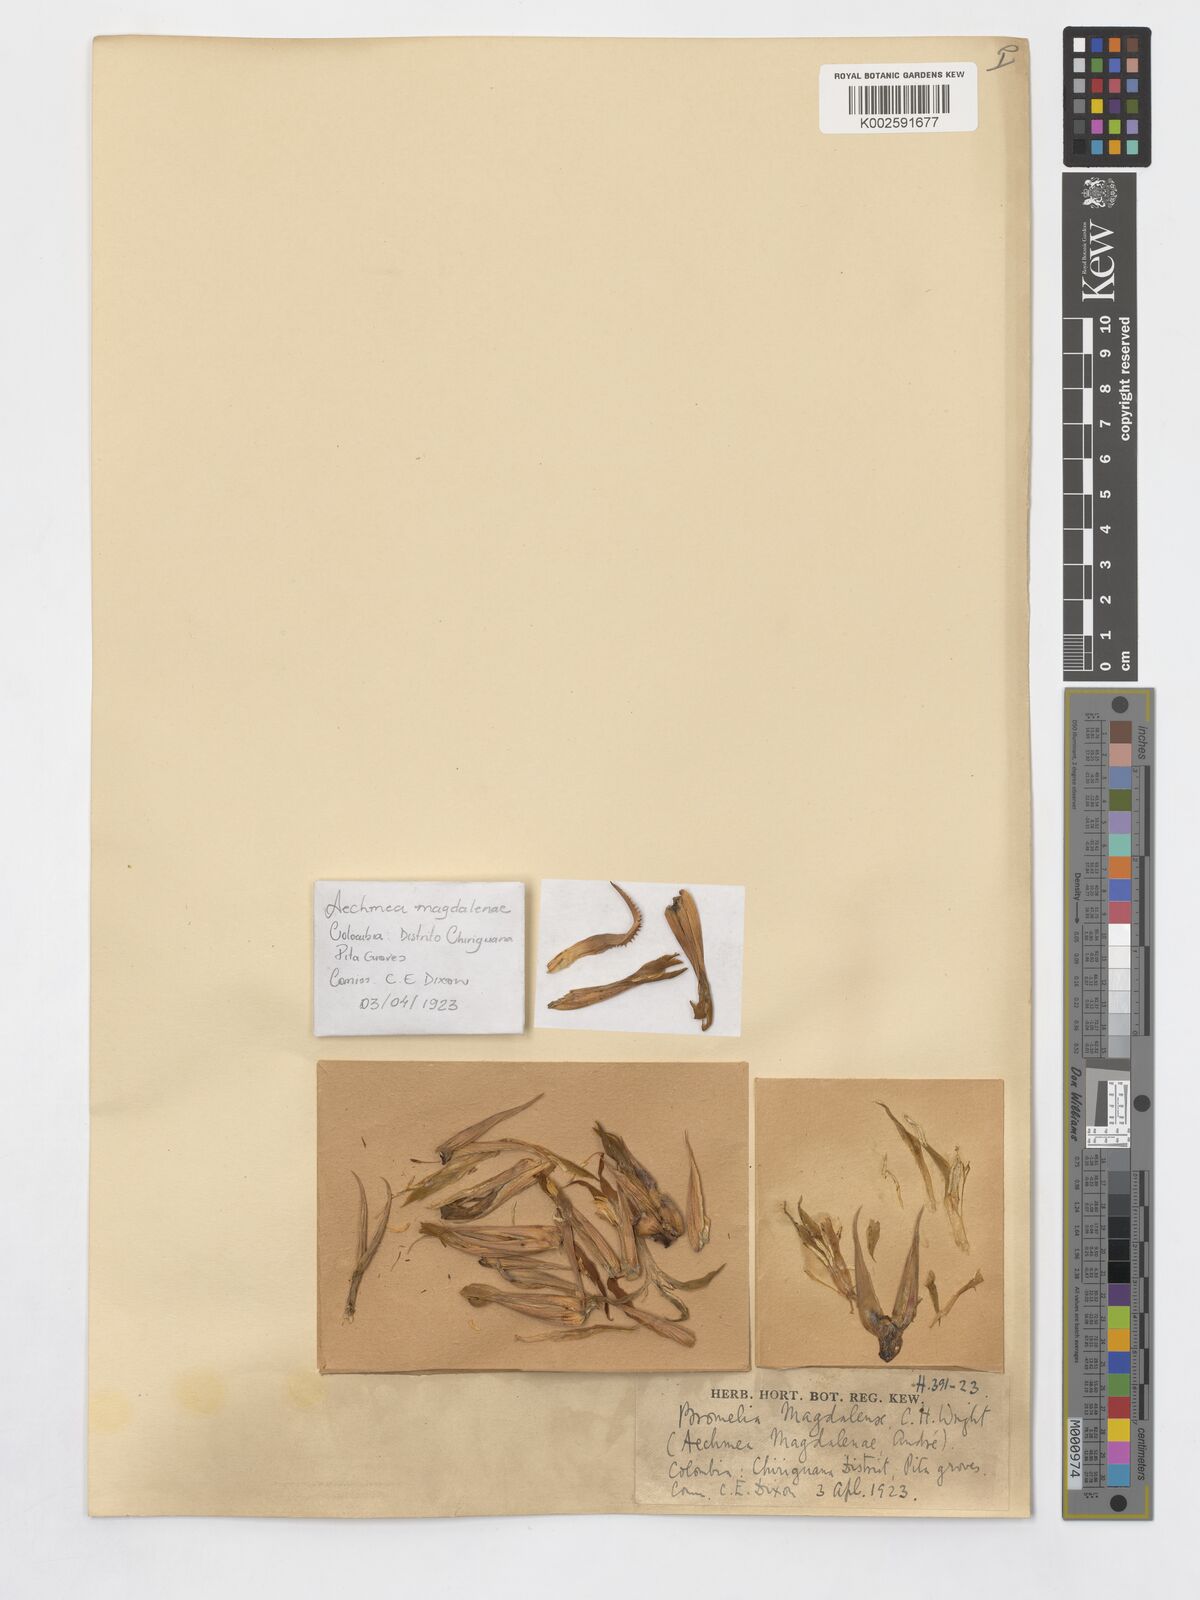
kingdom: Plantae
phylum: Tracheophyta
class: Liliopsida
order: Poales
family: Bromeliaceae
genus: Aechmea
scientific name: Aechmea magdalenae
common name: Arghan
